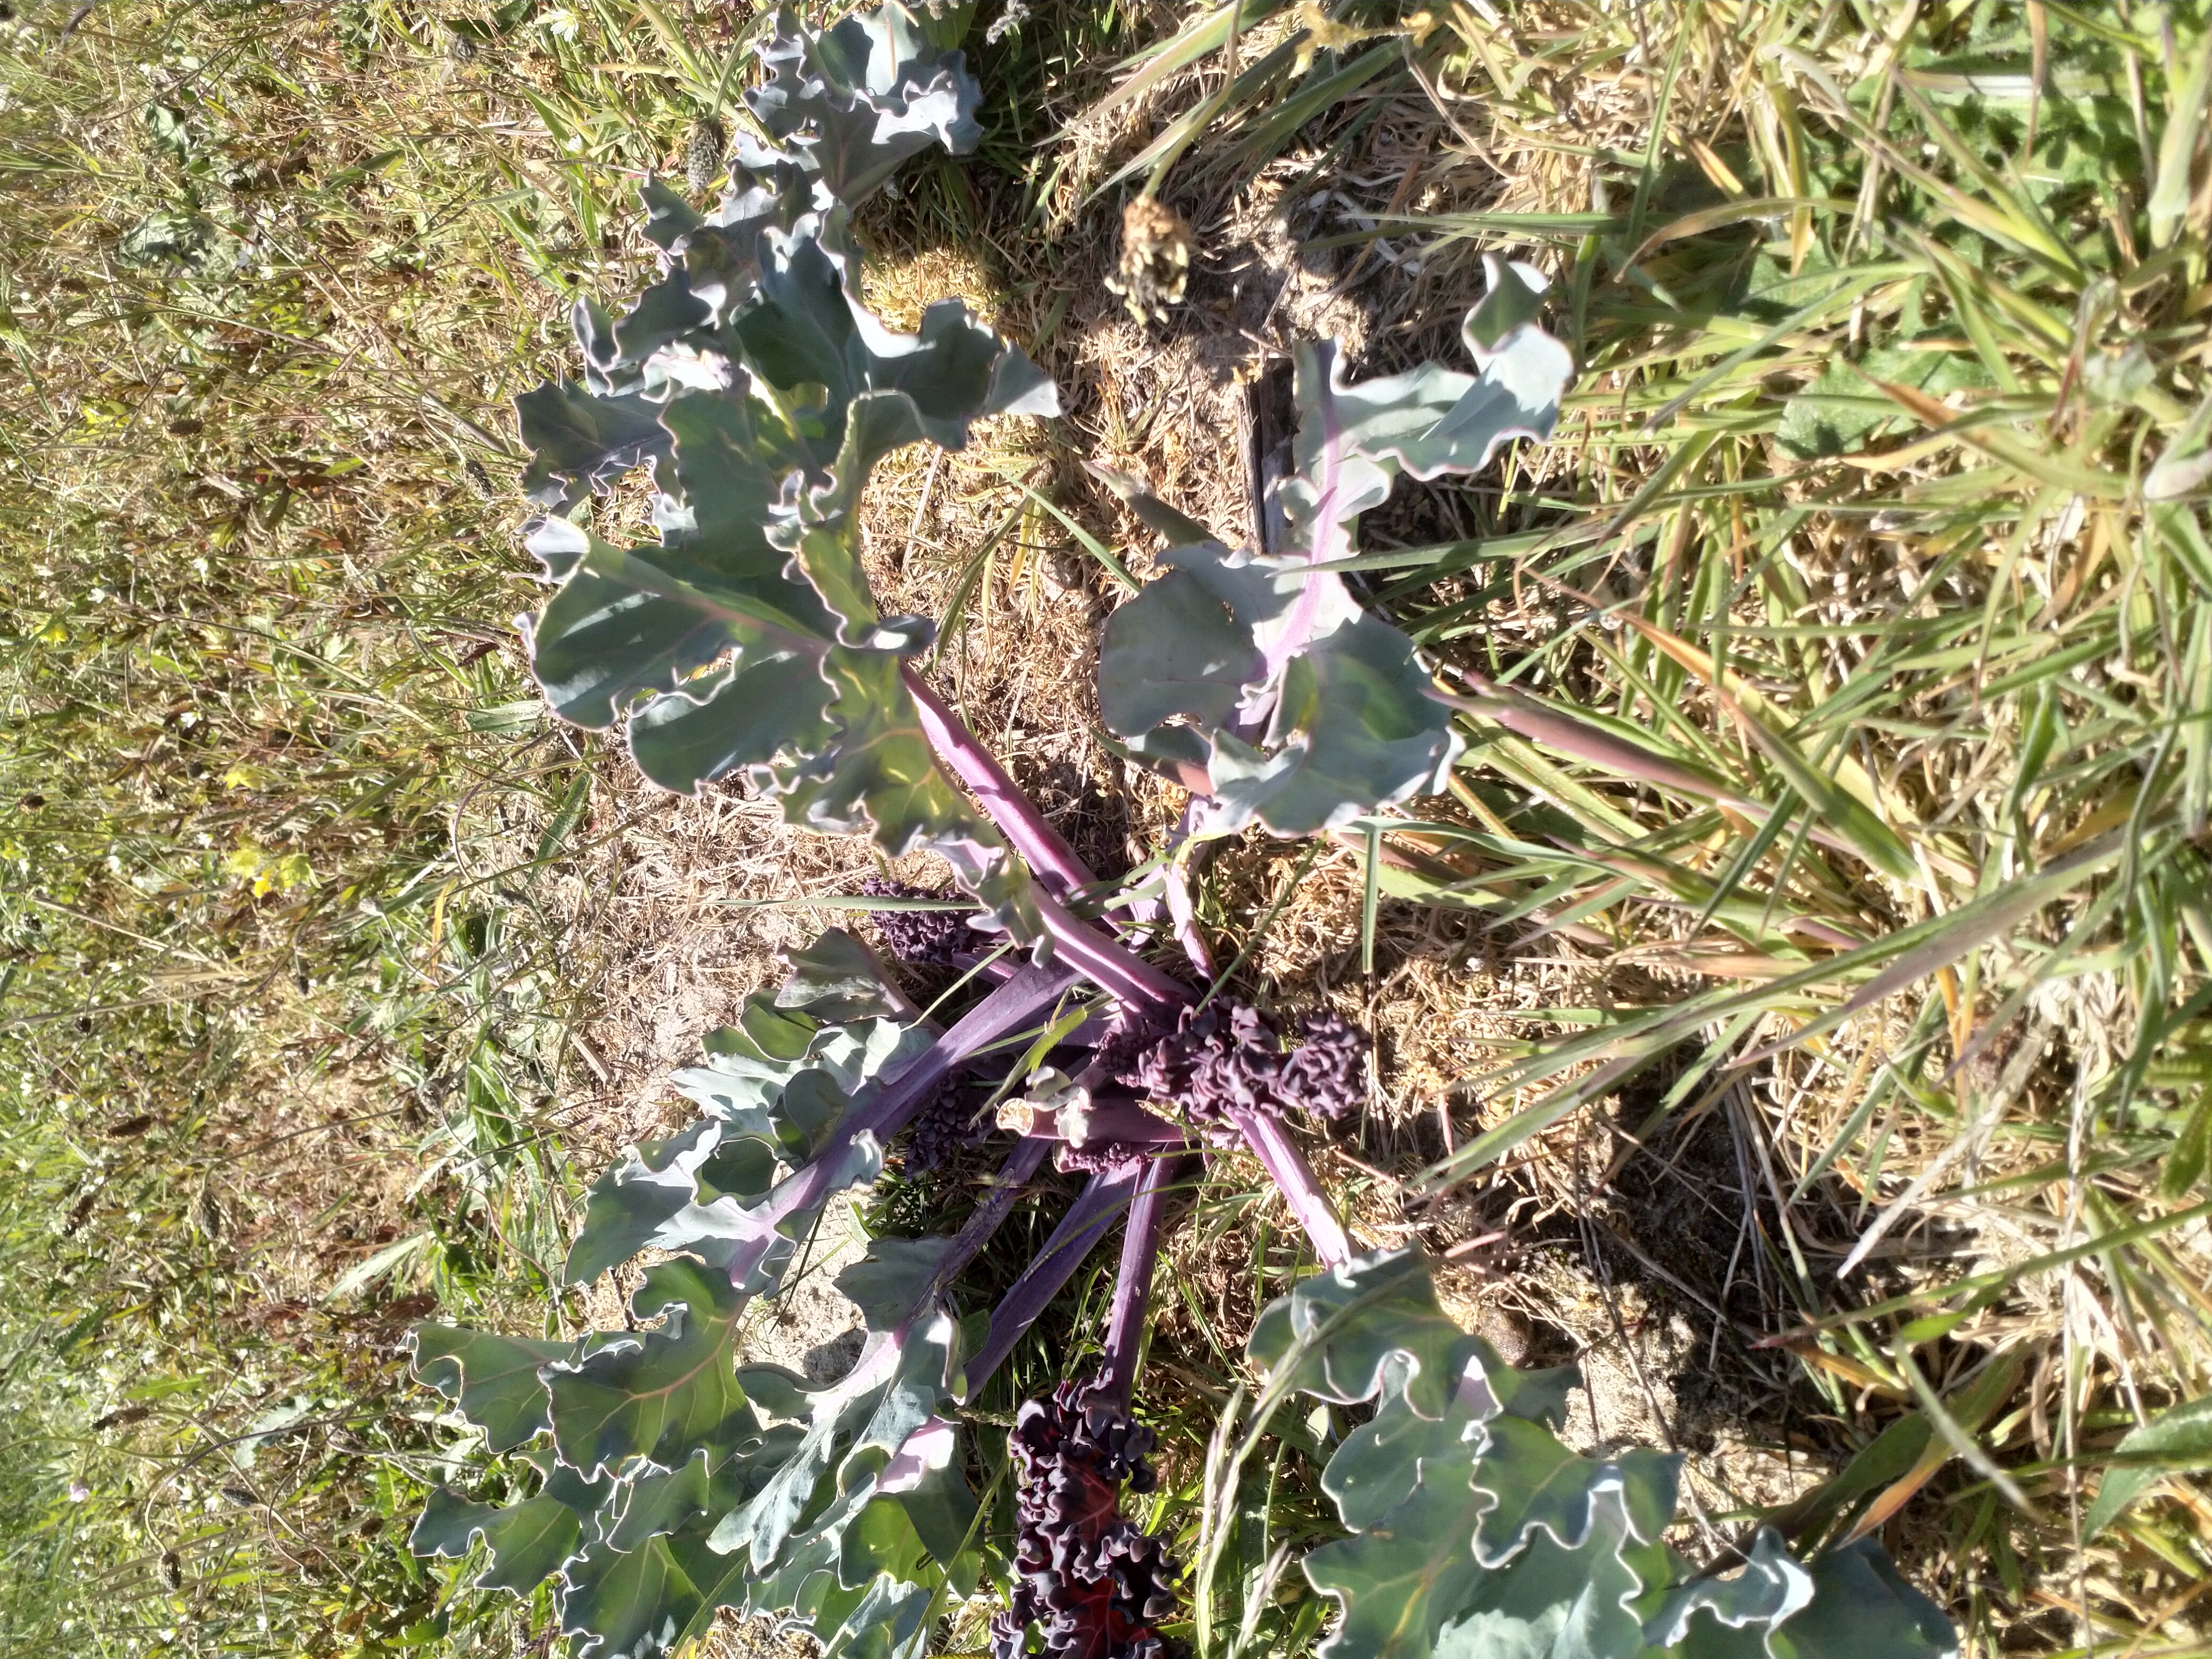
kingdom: Plantae
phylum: Tracheophyta
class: Magnoliopsida
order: Brassicales
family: Brassicaceae
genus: Crambe
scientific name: Crambe maritima
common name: Strandkål
